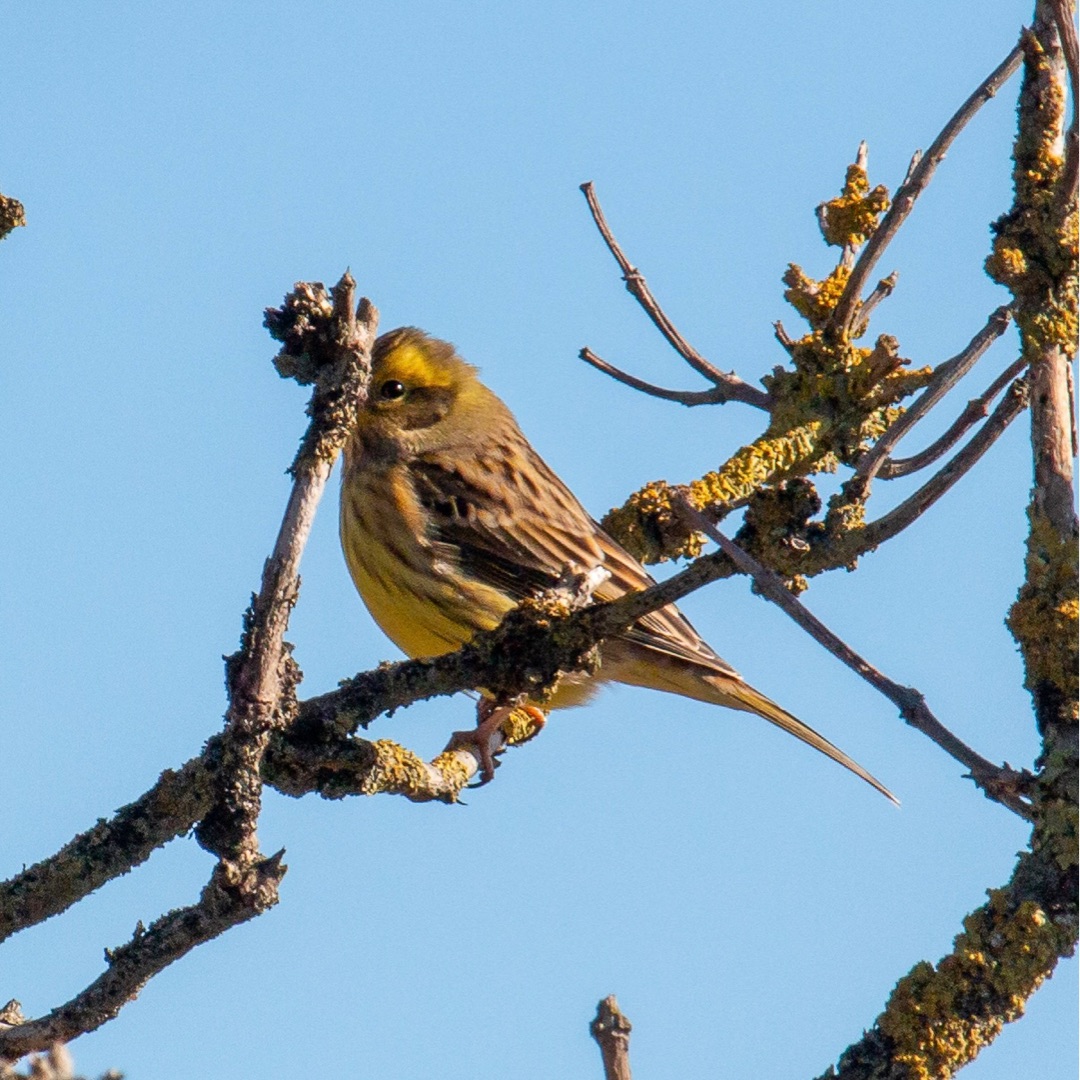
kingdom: Animalia
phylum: Chordata
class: Aves
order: Passeriformes
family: Emberizidae
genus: Emberiza
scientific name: Emberiza citrinella
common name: Gulspurv
